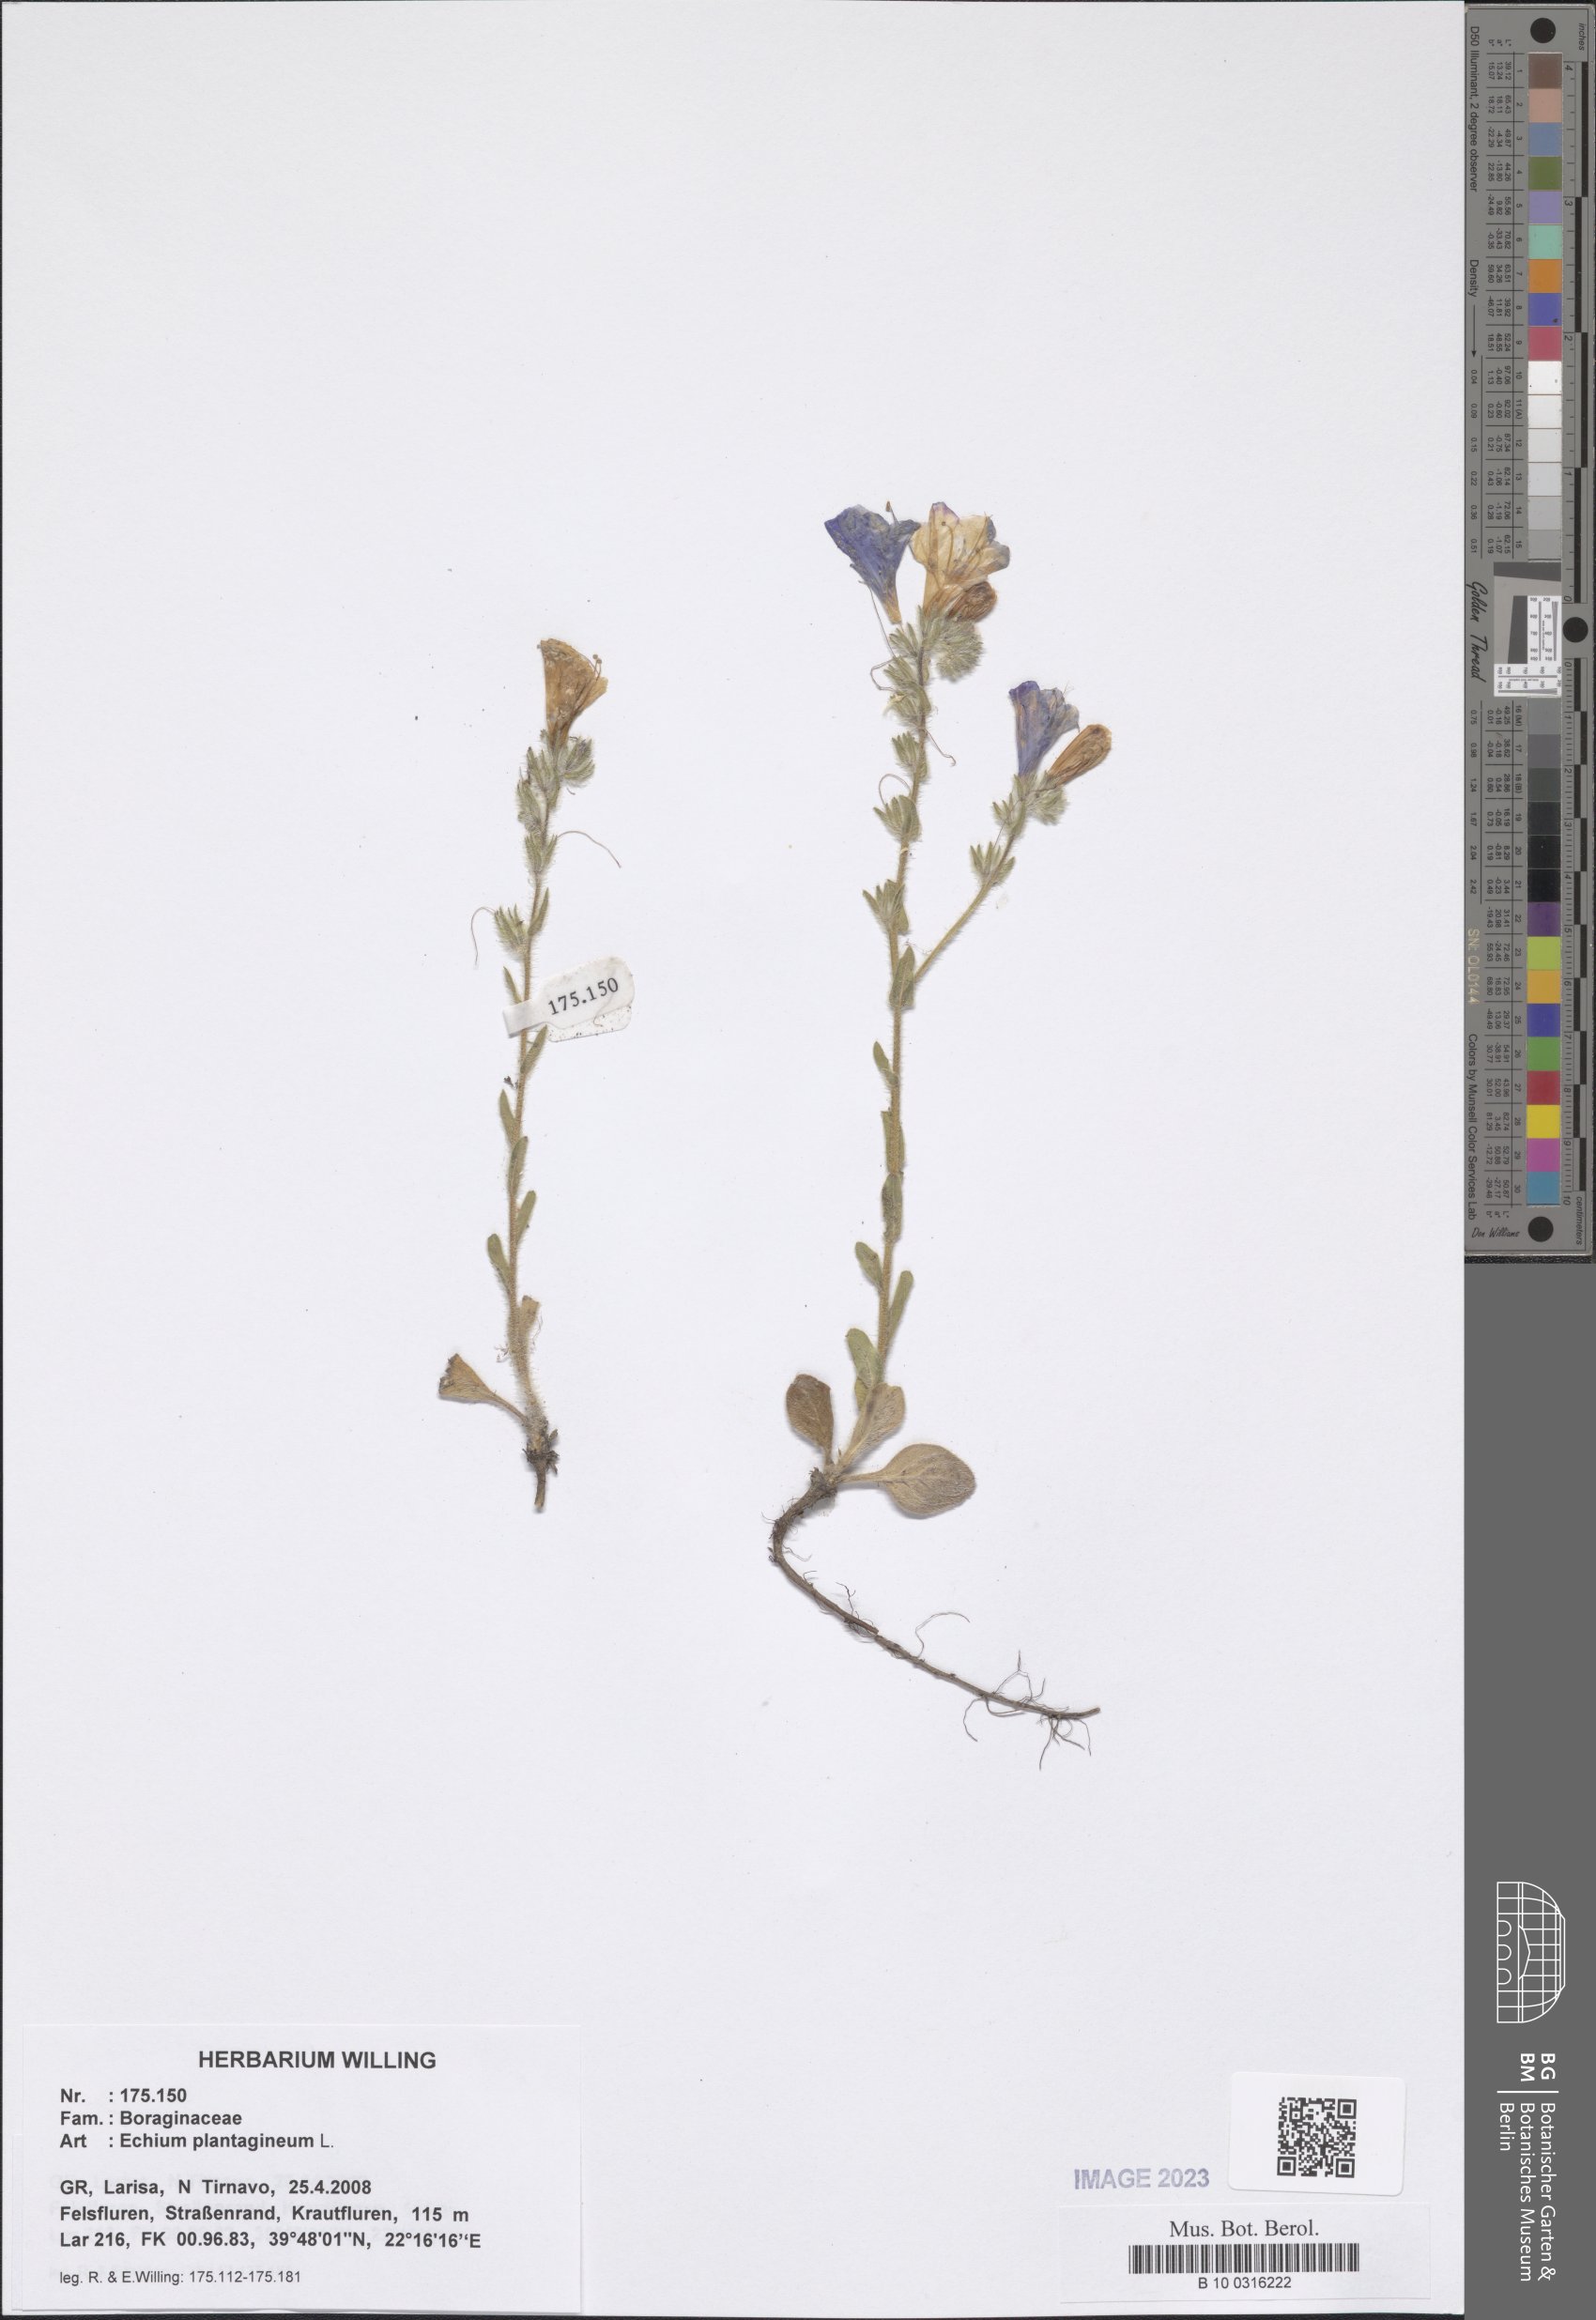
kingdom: Plantae
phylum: Tracheophyta
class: Magnoliopsida
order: Boraginales
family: Boraginaceae
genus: Echium
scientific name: Echium plantagineum
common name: Purple viper's-bugloss
